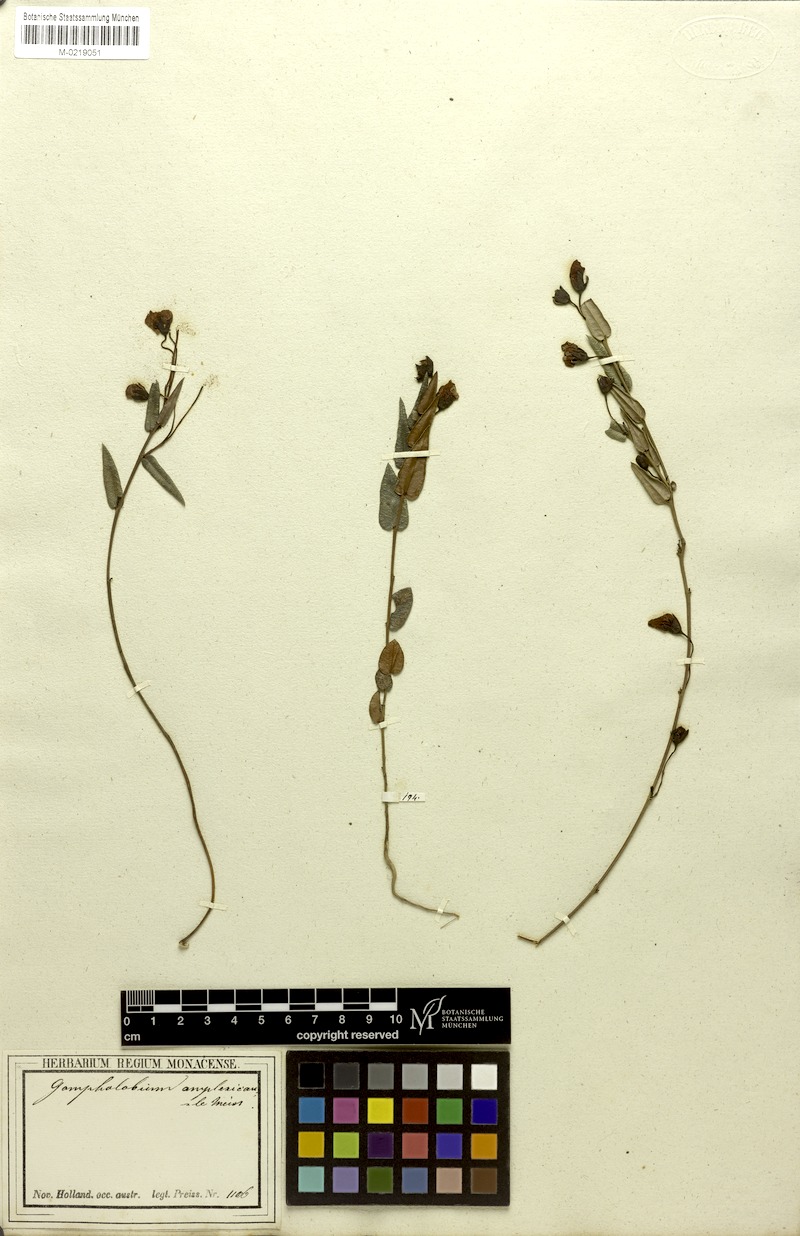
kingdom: Plantae
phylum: Tracheophyta
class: Magnoliopsida
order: Fabales
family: Fabaceae
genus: Gompholobium
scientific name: Gompholobium ovatum
